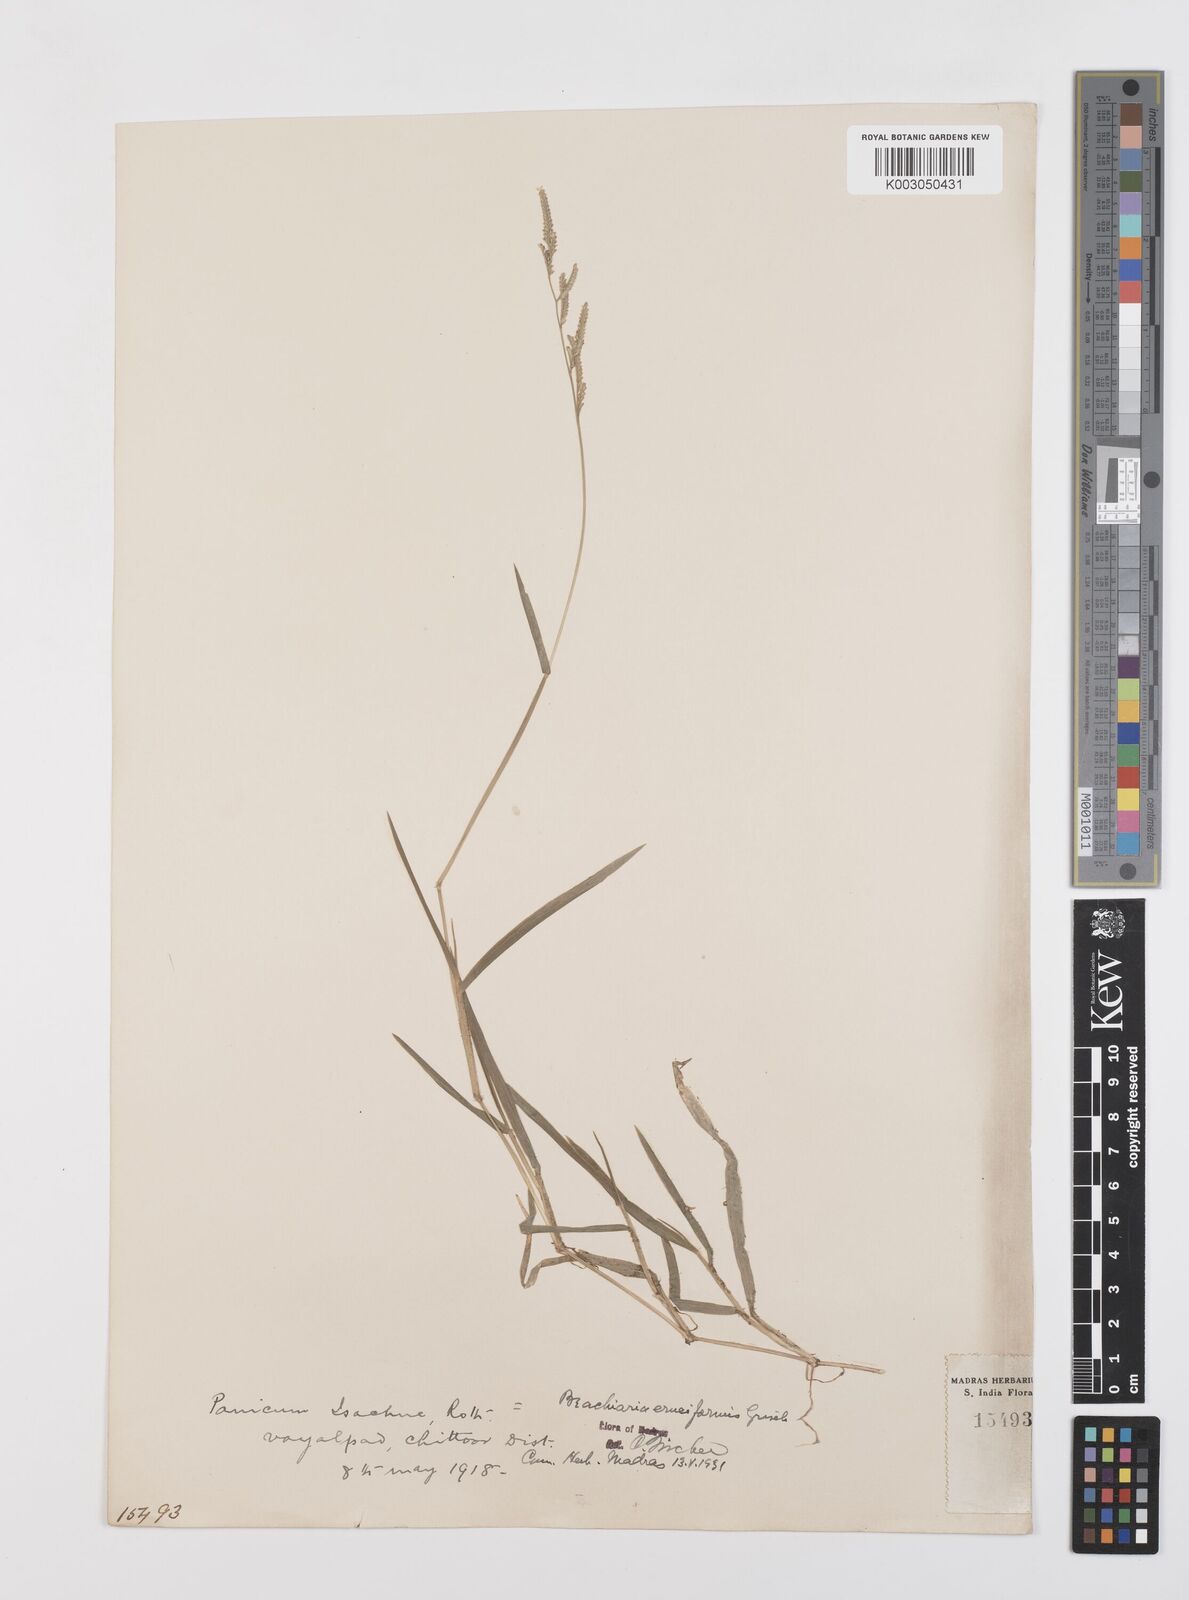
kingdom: Plantae
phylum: Tracheophyta
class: Liliopsida
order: Poales
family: Poaceae
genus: Moorochloa
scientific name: Moorochloa eruciformis
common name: Sweet signalgrass
